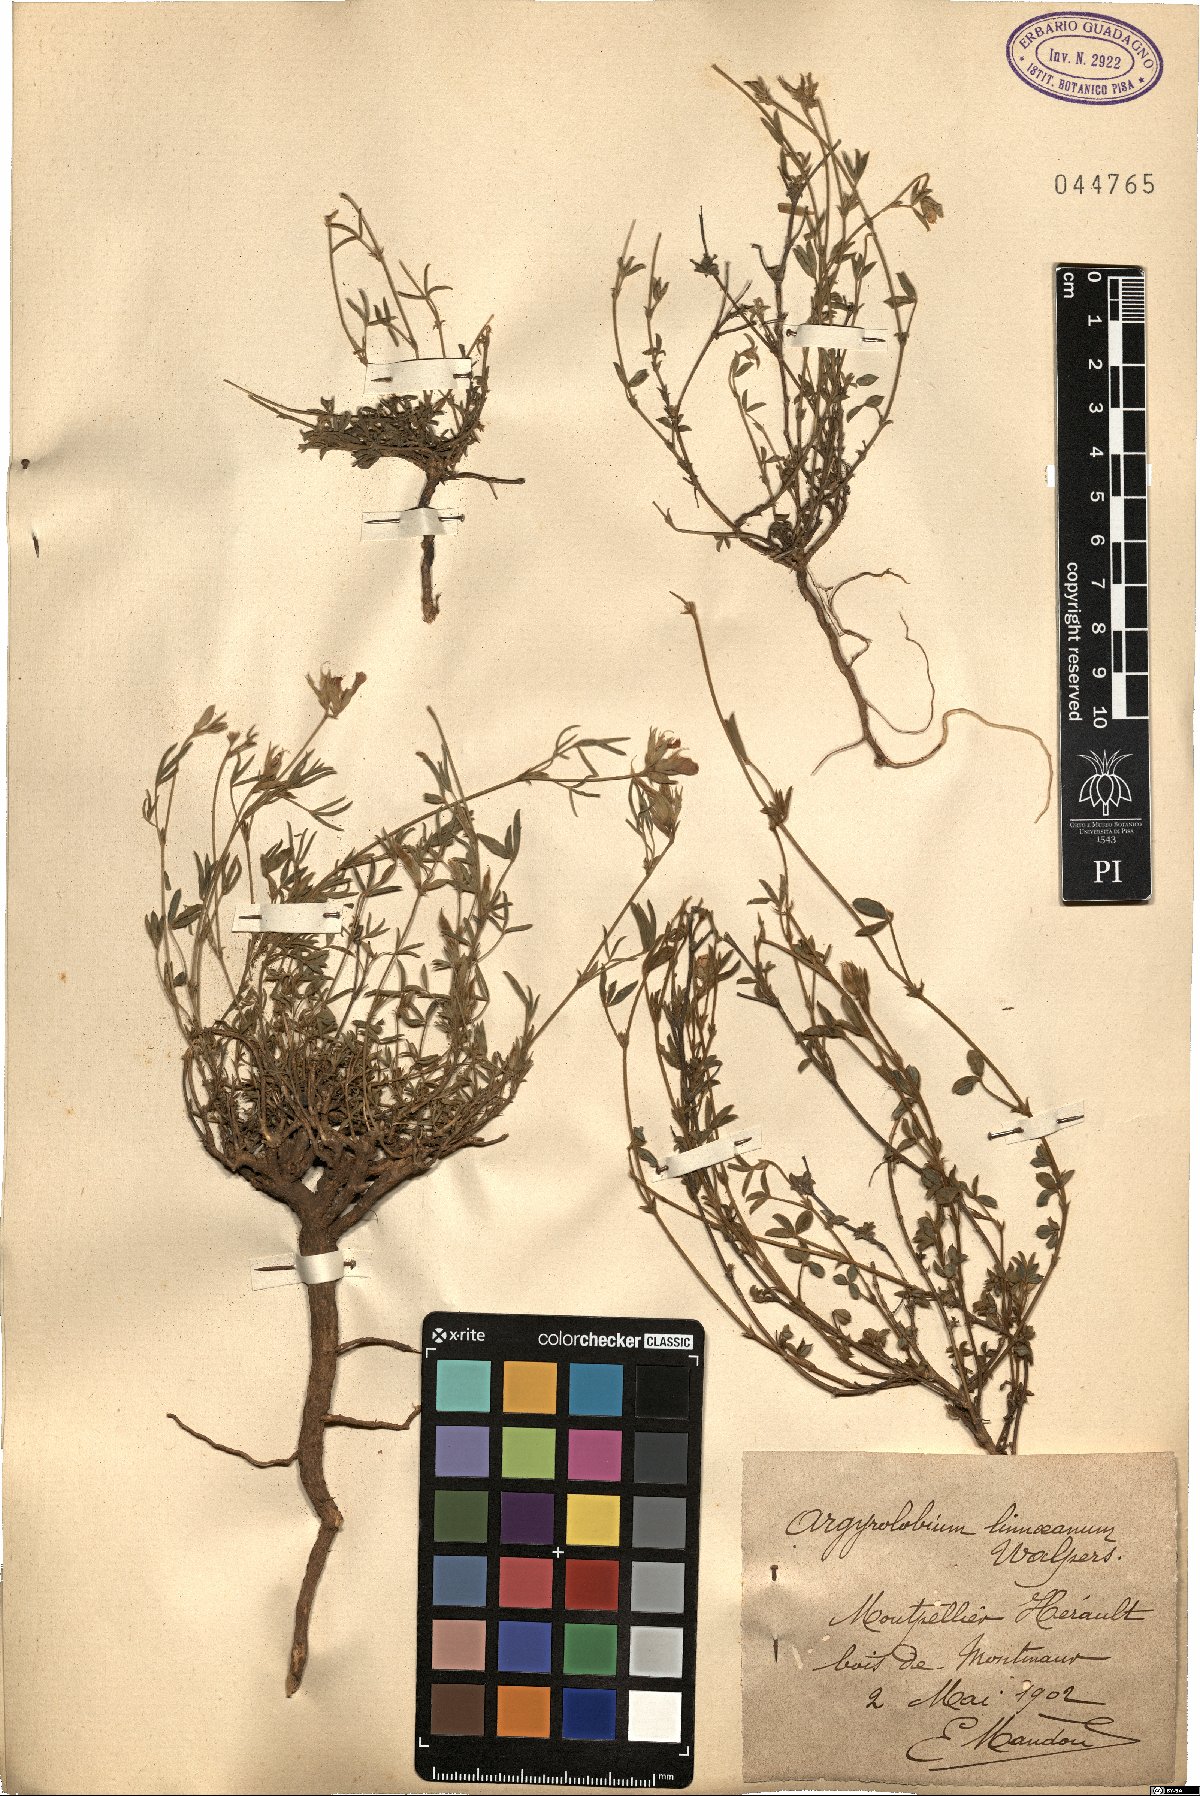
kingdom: Plantae
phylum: Tracheophyta
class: Magnoliopsida
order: Fabales
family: Fabaceae
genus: Argyrolobium
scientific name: Argyrolobium zanonii
